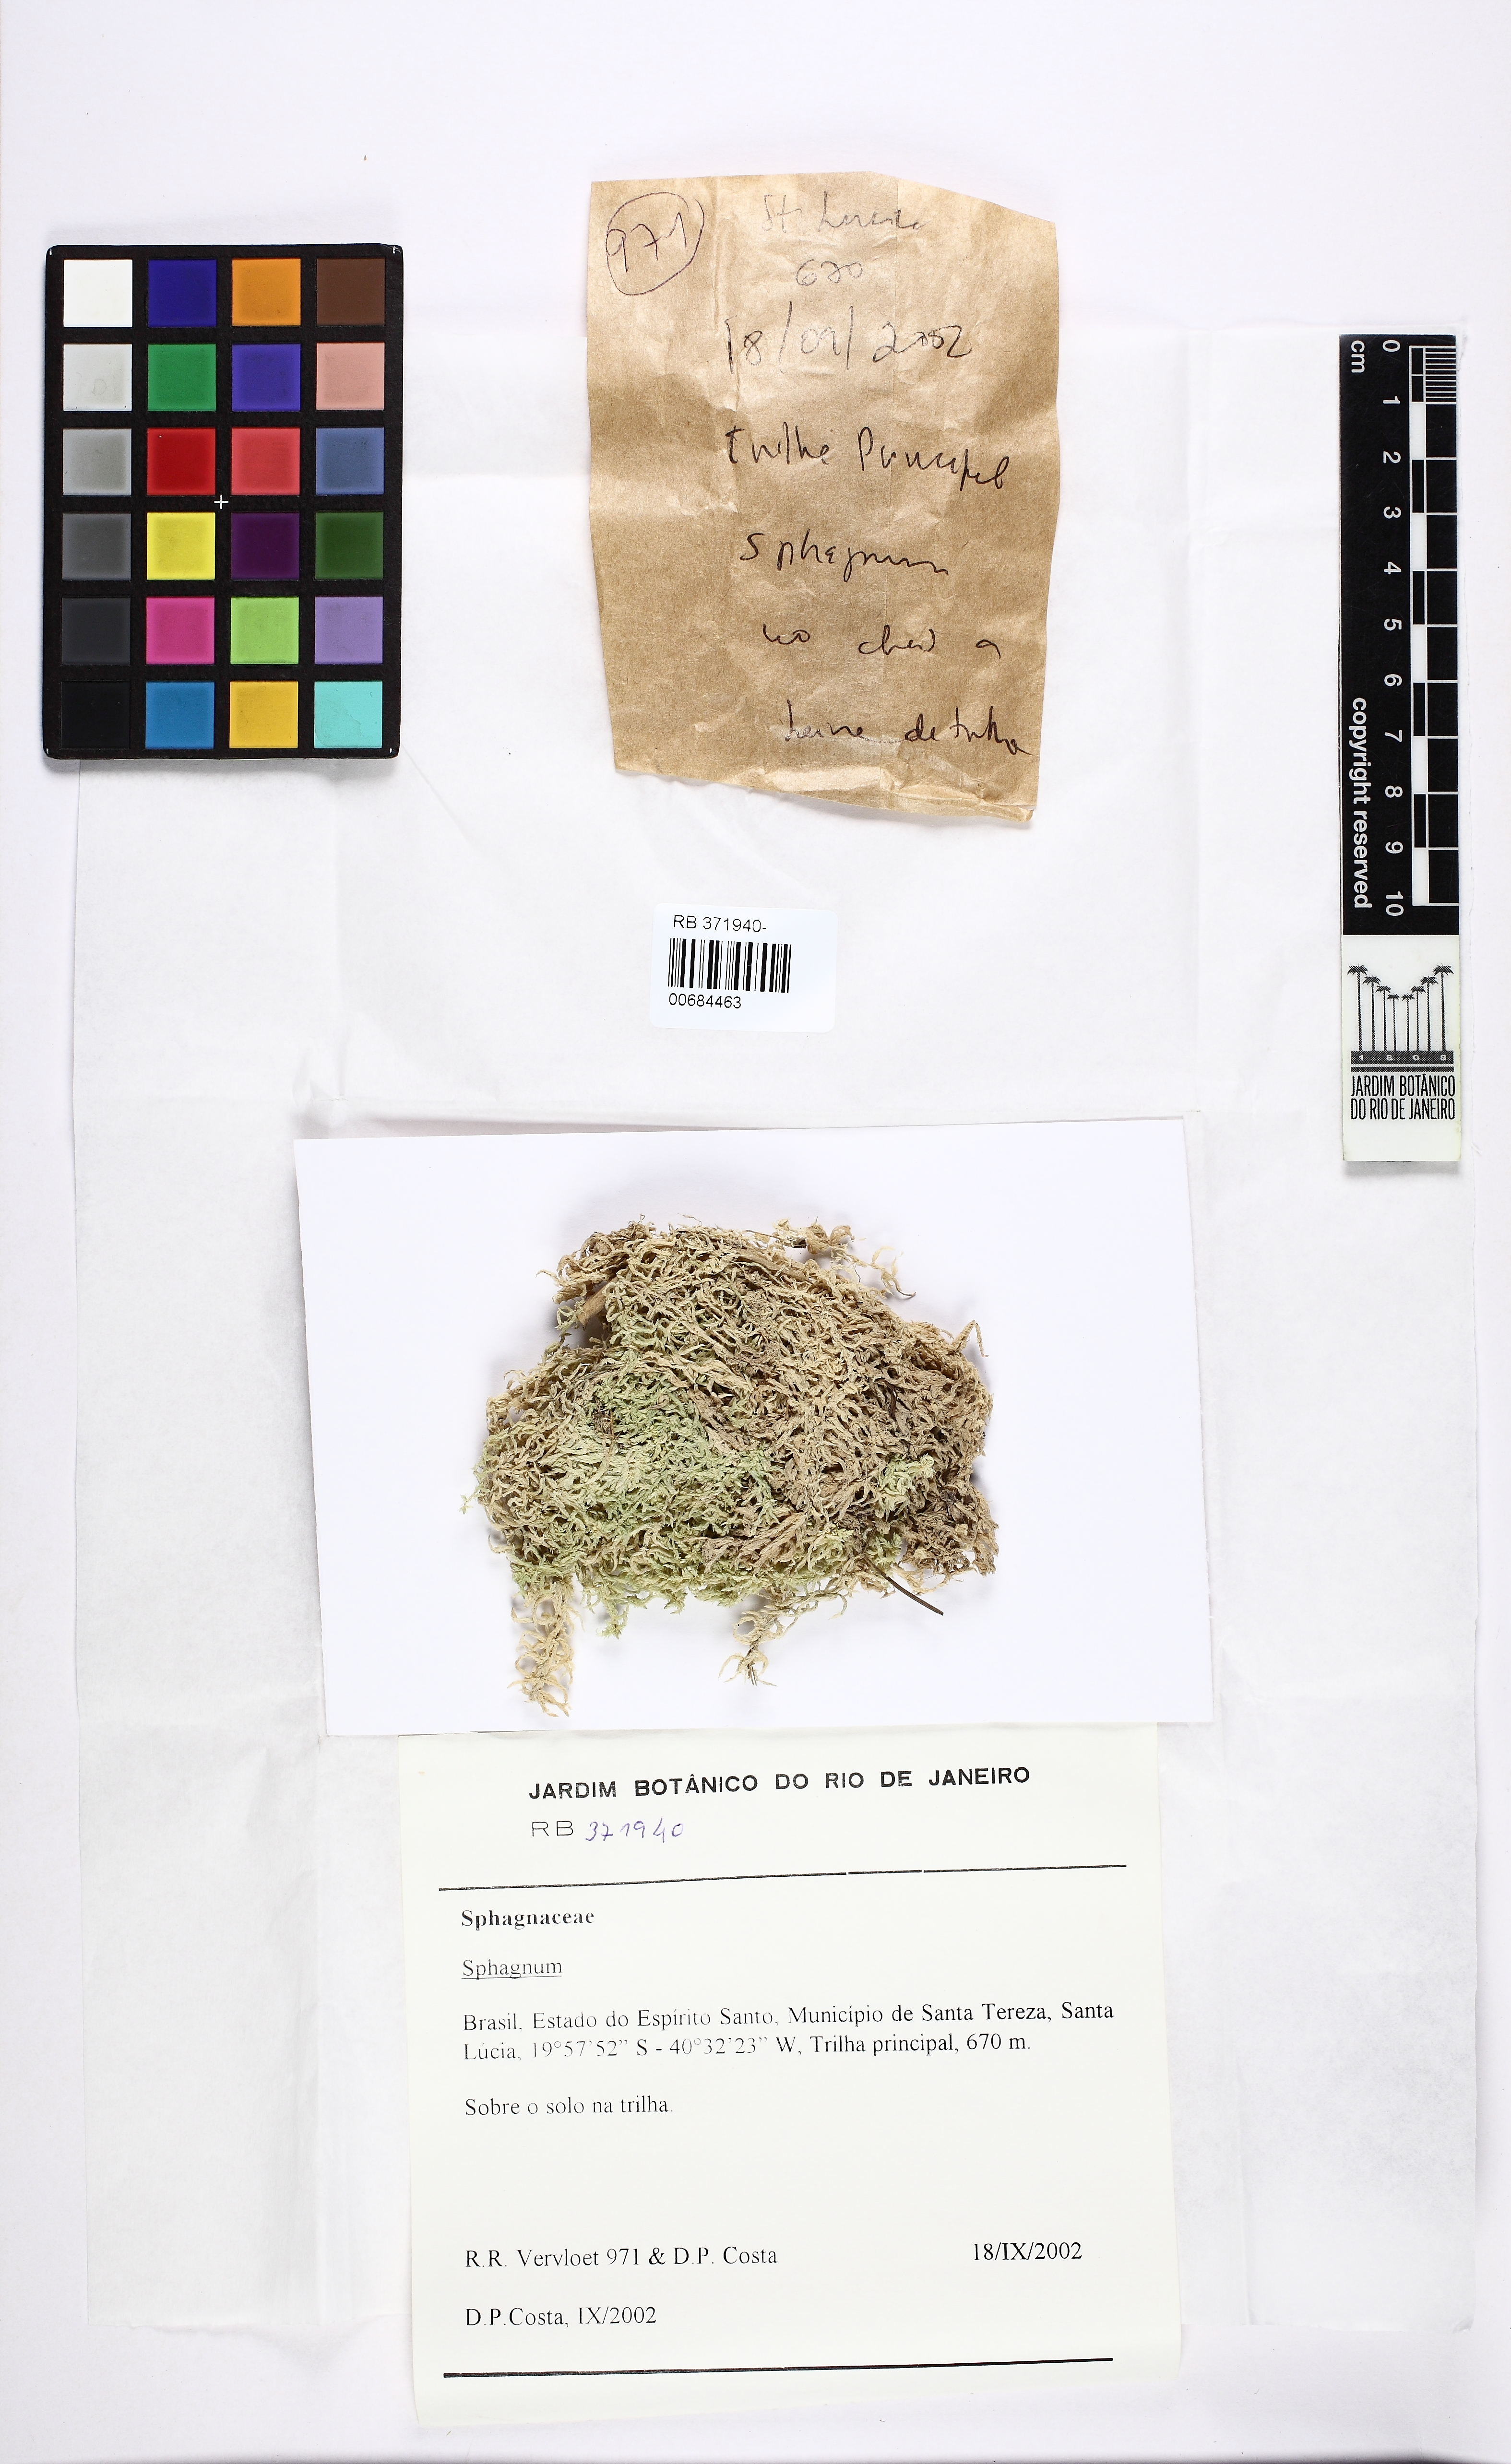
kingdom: Plantae
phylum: Bryophyta
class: Sphagnopsida
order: Sphagnales
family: Sphagnaceae
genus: Sphagnum
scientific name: Sphagnum gracilescens
